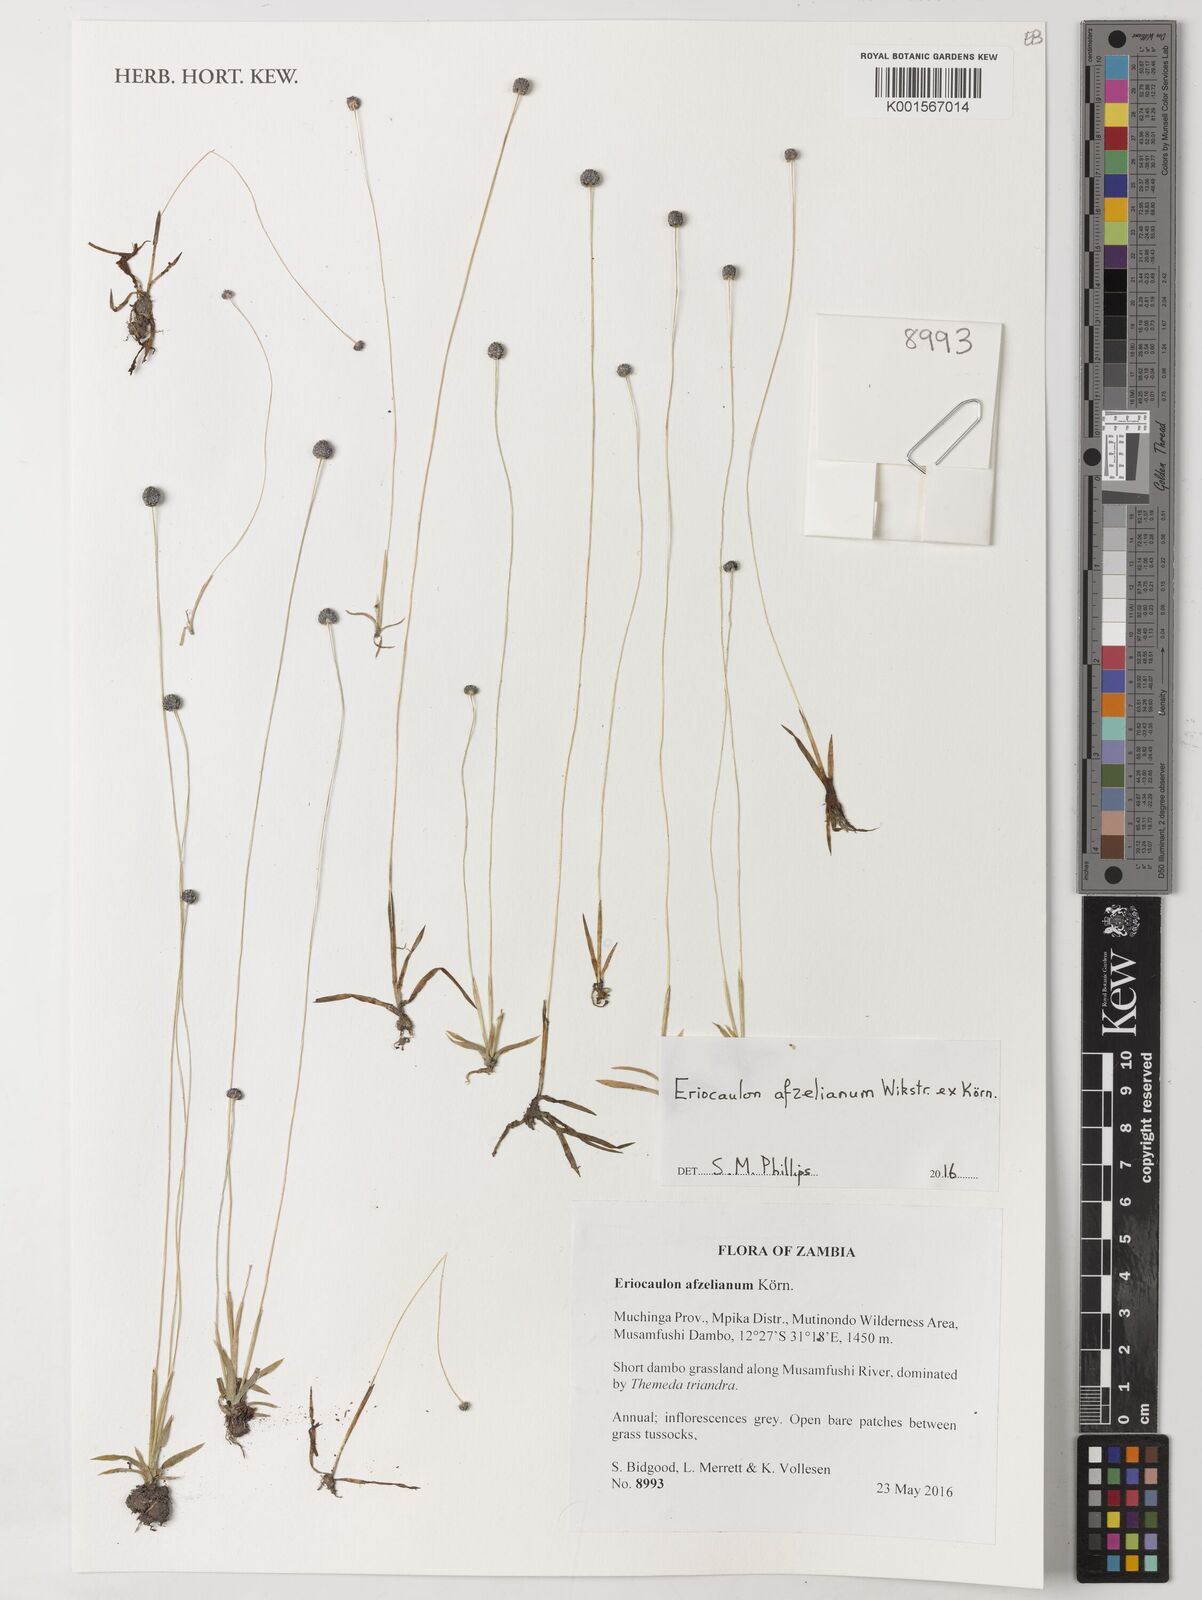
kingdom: Plantae
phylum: Tracheophyta
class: Liliopsida
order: Poales
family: Eriocaulaceae
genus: Eriocaulon
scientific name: Eriocaulon afzelianum
